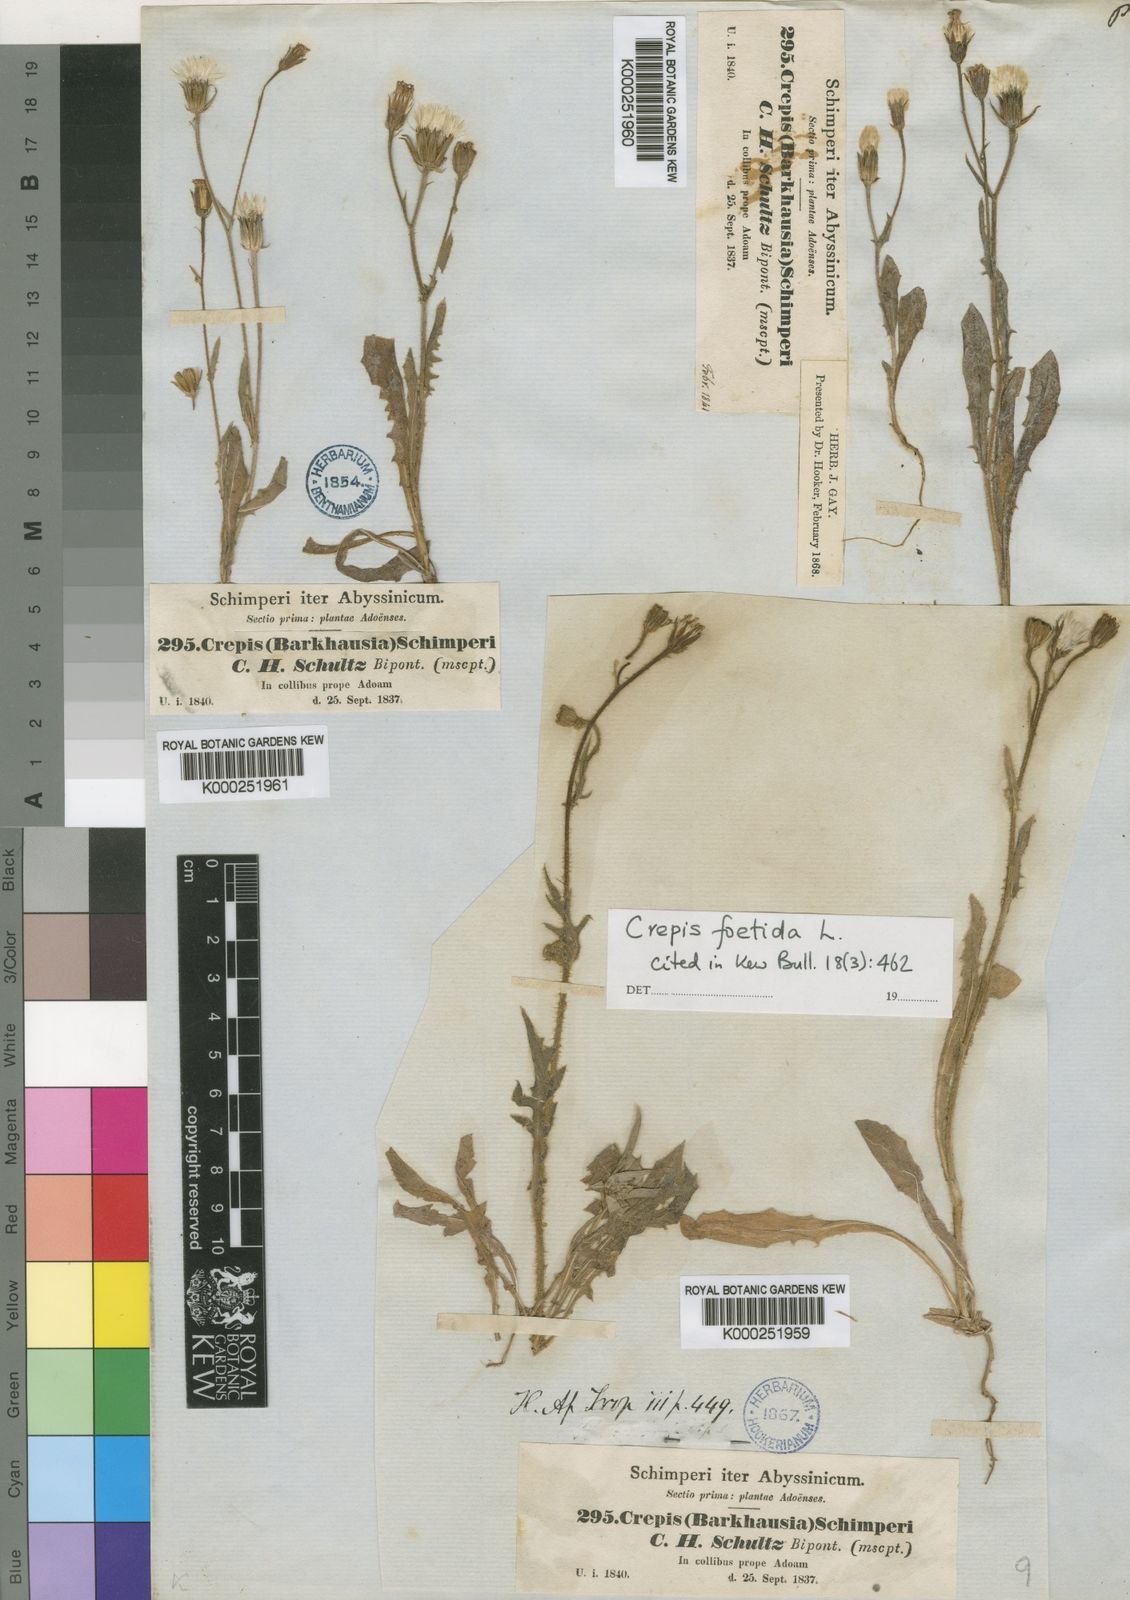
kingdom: Plantae
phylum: Tracheophyta
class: Magnoliopsida
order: Asterales
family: Asteraceae
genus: Crepis
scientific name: Crepis foetida
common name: Stinking hawk's-beard
